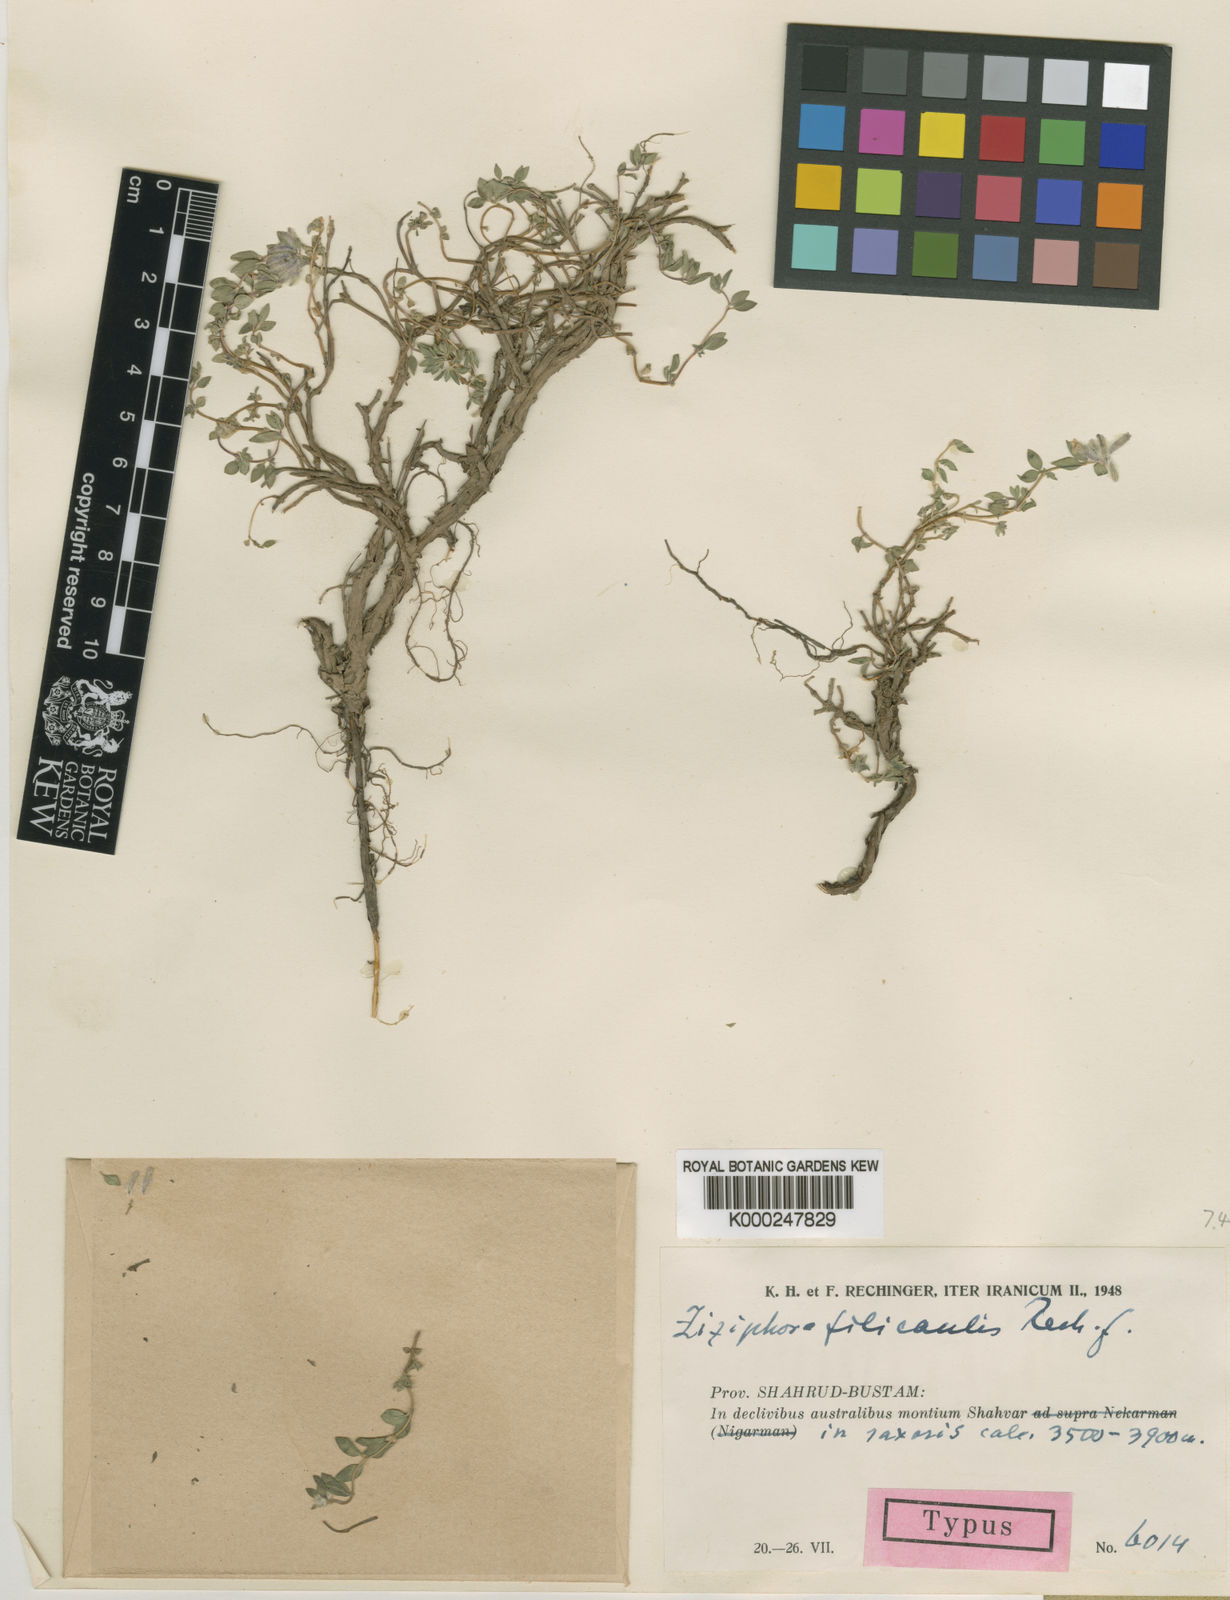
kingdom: Plantae
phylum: Tracheophyta
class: Magnoliopsida
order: Lamiales
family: Lamiaceae
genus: Ziziphora
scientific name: Ziziphora clinopodioides
